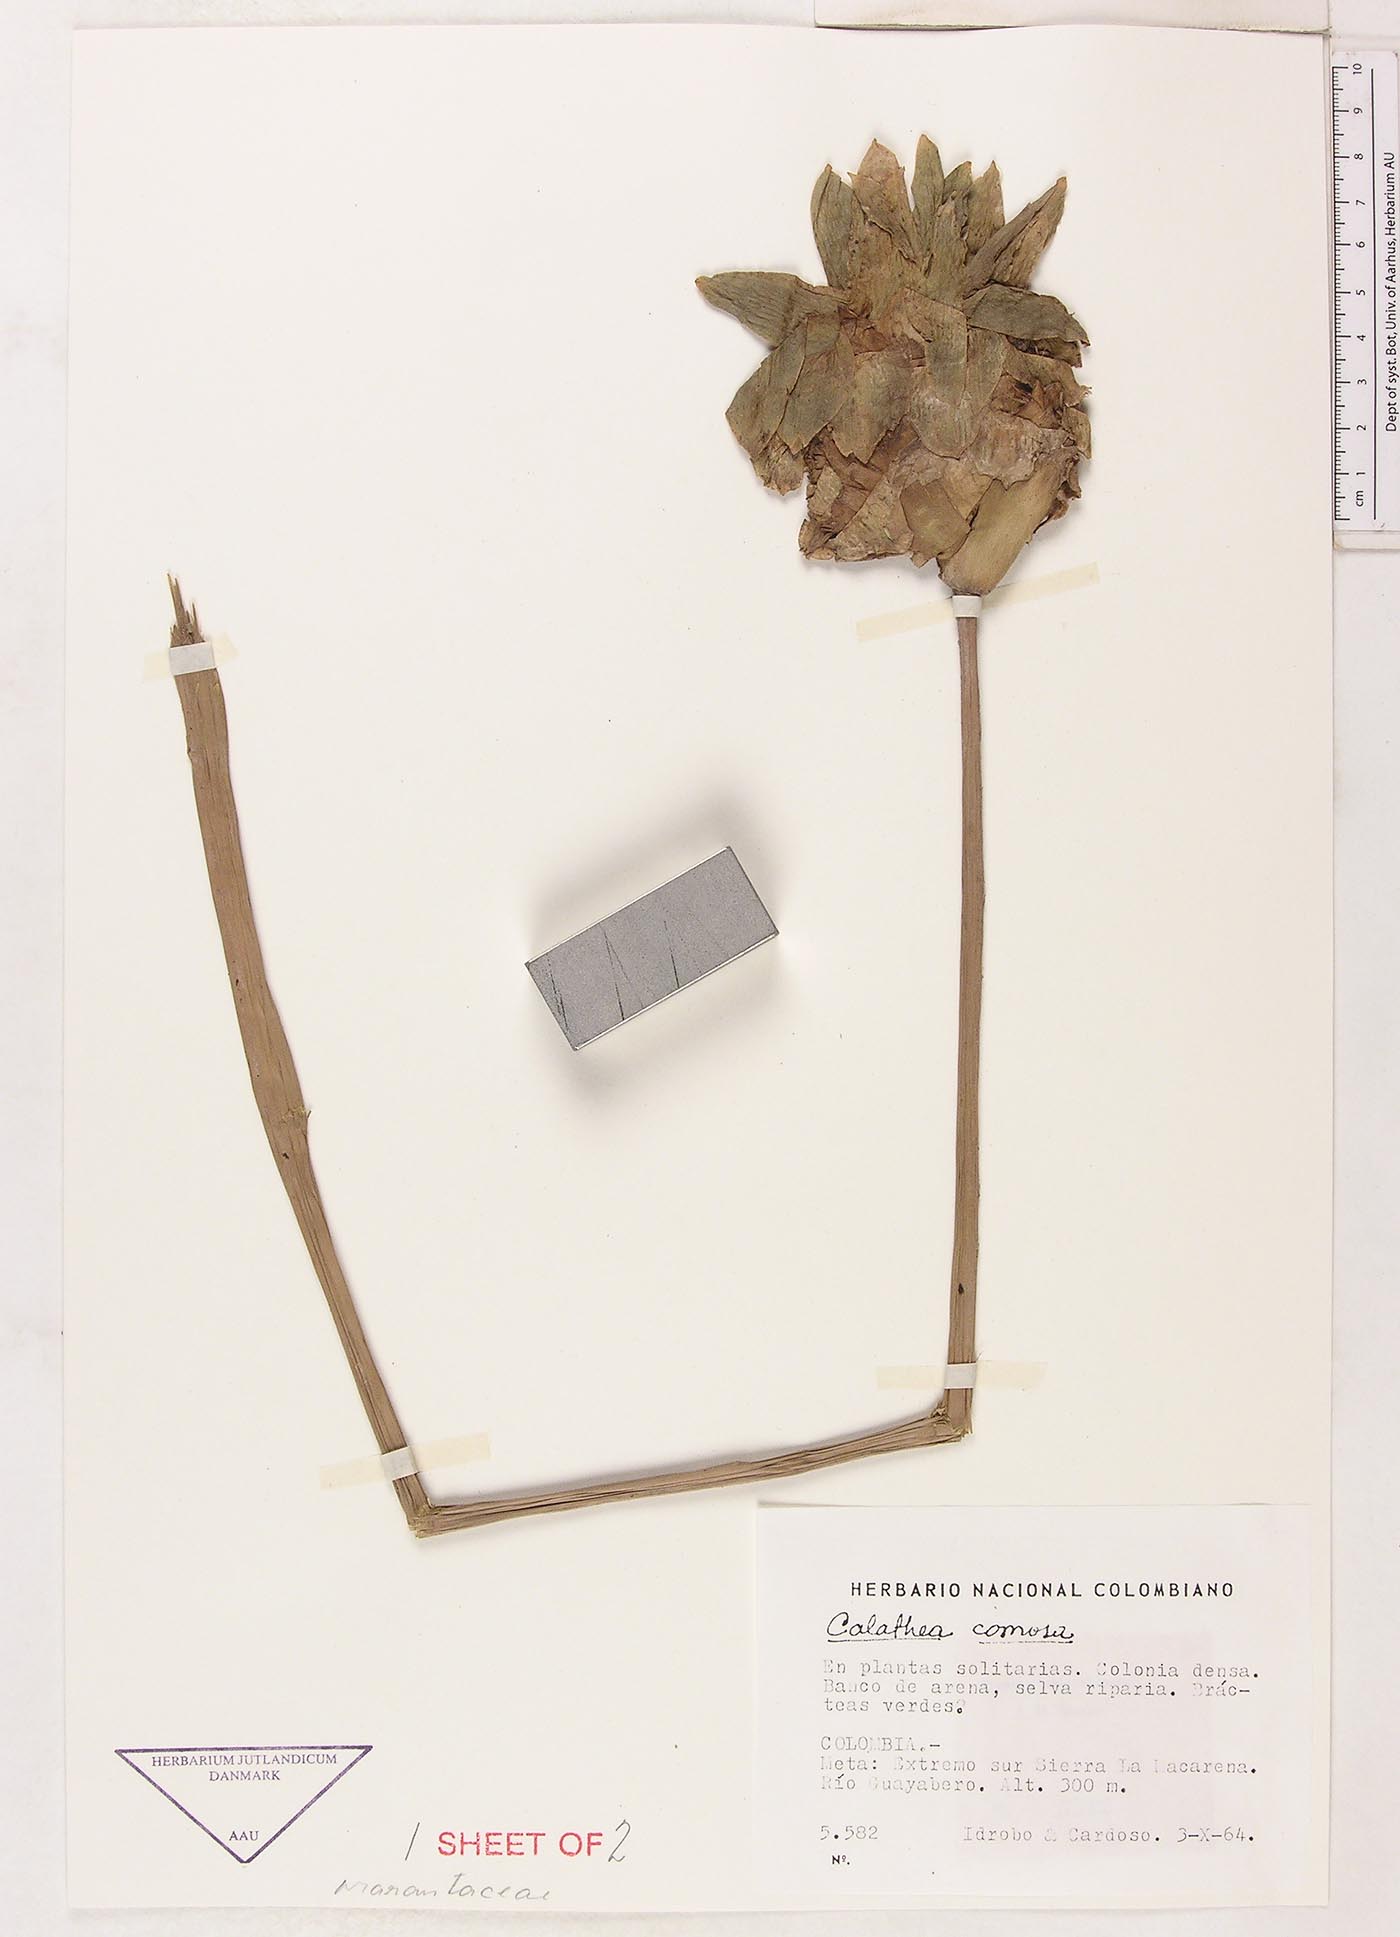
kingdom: Plantae
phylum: Tracheophyta
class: Liliopsida
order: Zingiberales
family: Marantaceae
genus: Goeppertia
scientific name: Goeppertia comosa
